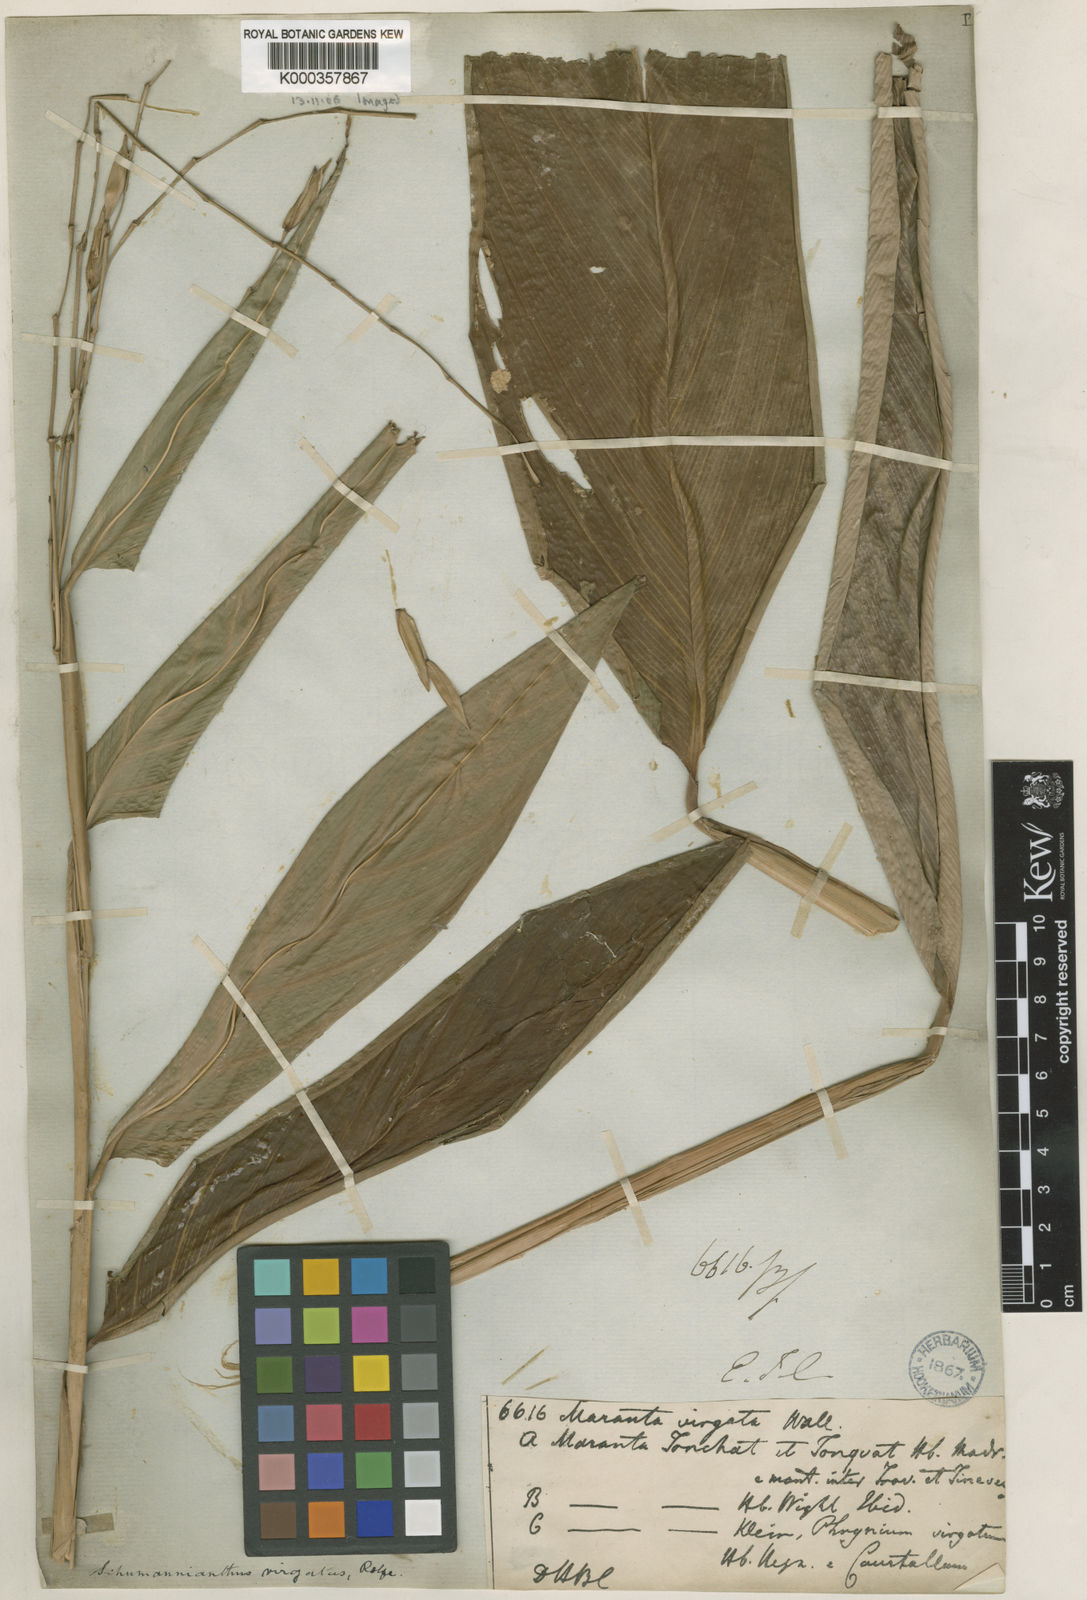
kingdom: Plantae
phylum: Tracheophyta
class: Liliopsida
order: Zingiberales
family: Marantaceae
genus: Indianthus
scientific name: Indianthus virgatus
